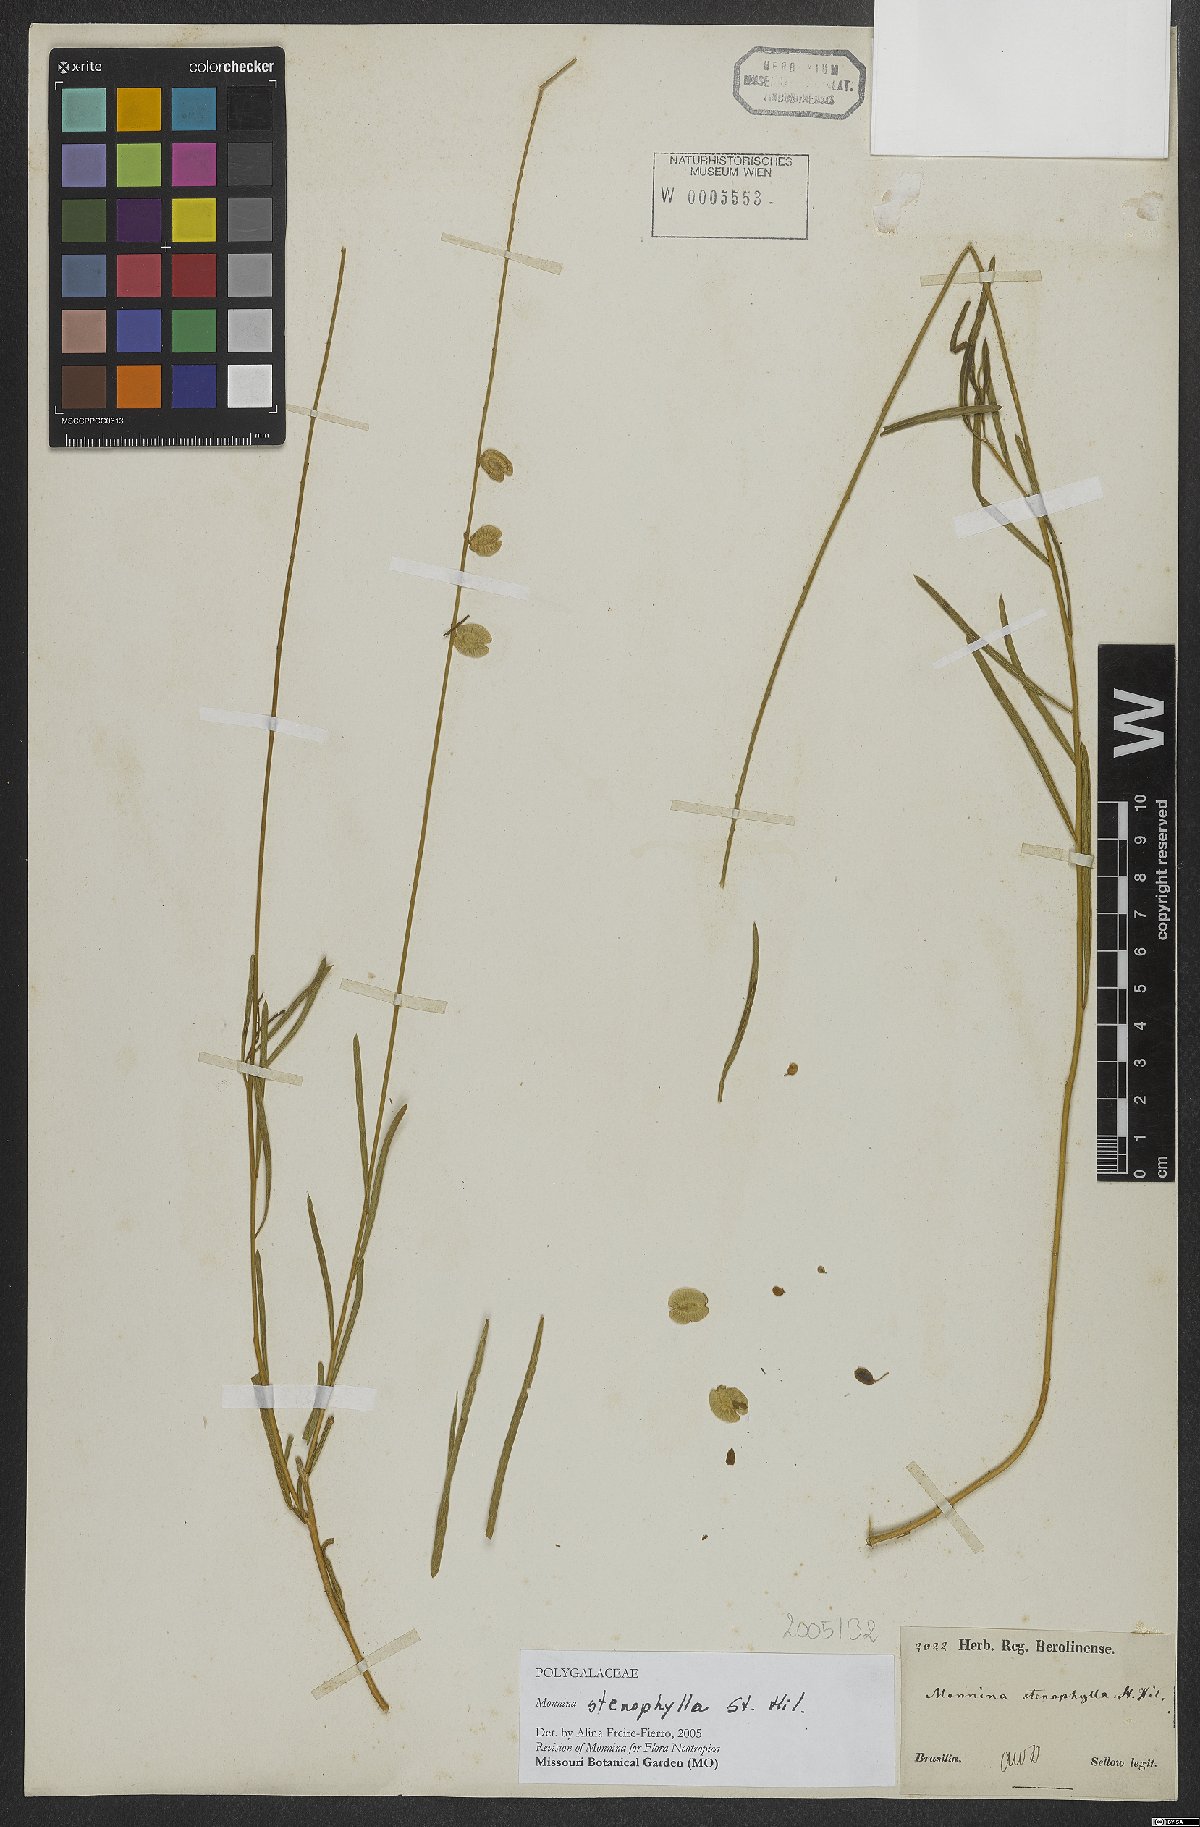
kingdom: Plantae
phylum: Tracheophyta
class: Magnoliopsida
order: Fabales
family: Polygalaceae
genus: Monnina
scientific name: Monnina stenophylla
